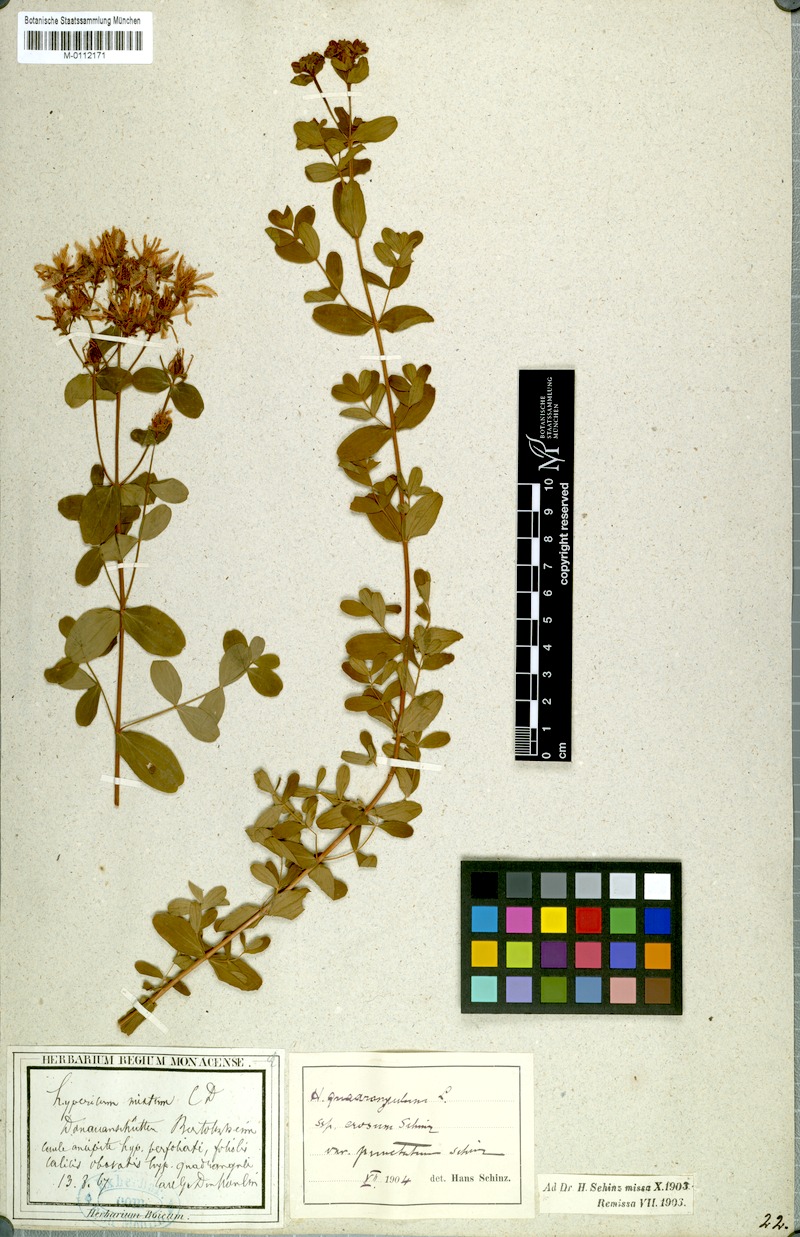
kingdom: Plantae
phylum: Tracheophyta
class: Magnoliopsida
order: Malpighiales
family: Hypericaceae
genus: Hypericum
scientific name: Hypericum tetrapterum
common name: Square-stalked st. john's-wort
